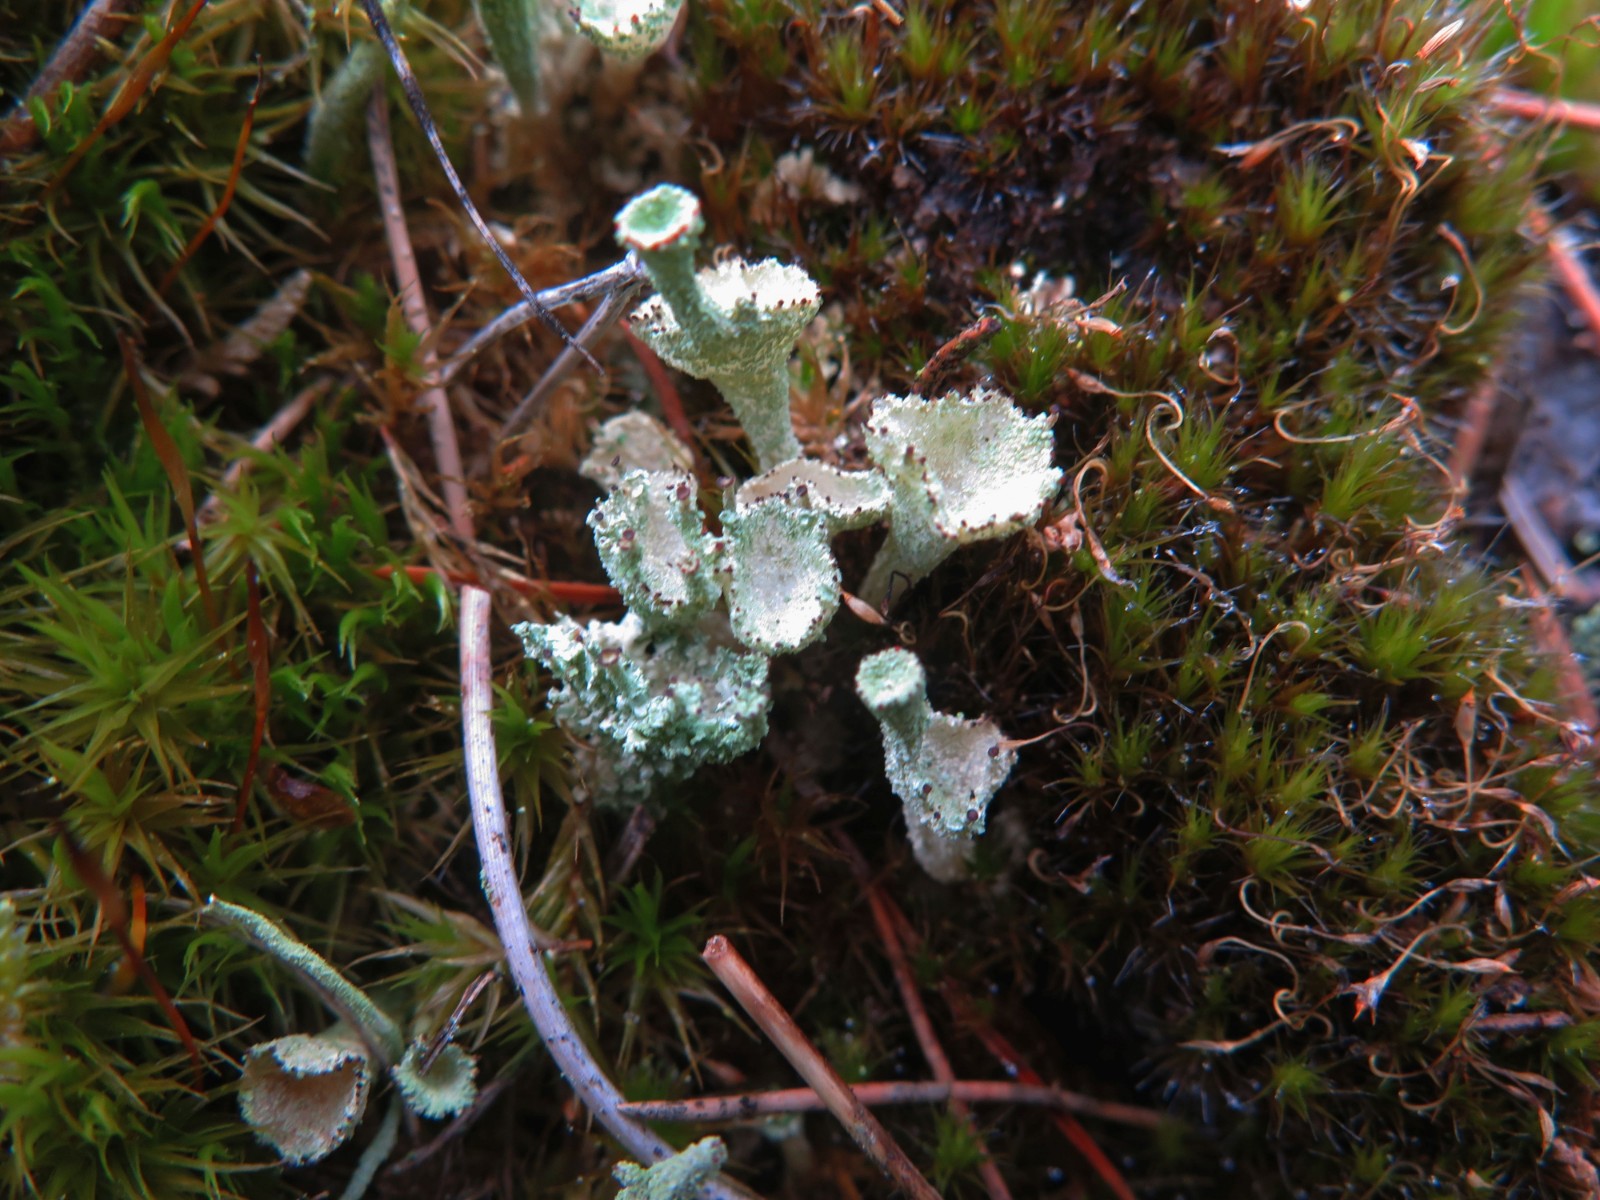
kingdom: Fungi
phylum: Ascomycota
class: Lecanoromycetes
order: Lecanorales
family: Cladoniaceae
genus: Cladonia
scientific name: Cladonia diversa
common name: rød bægerlav
